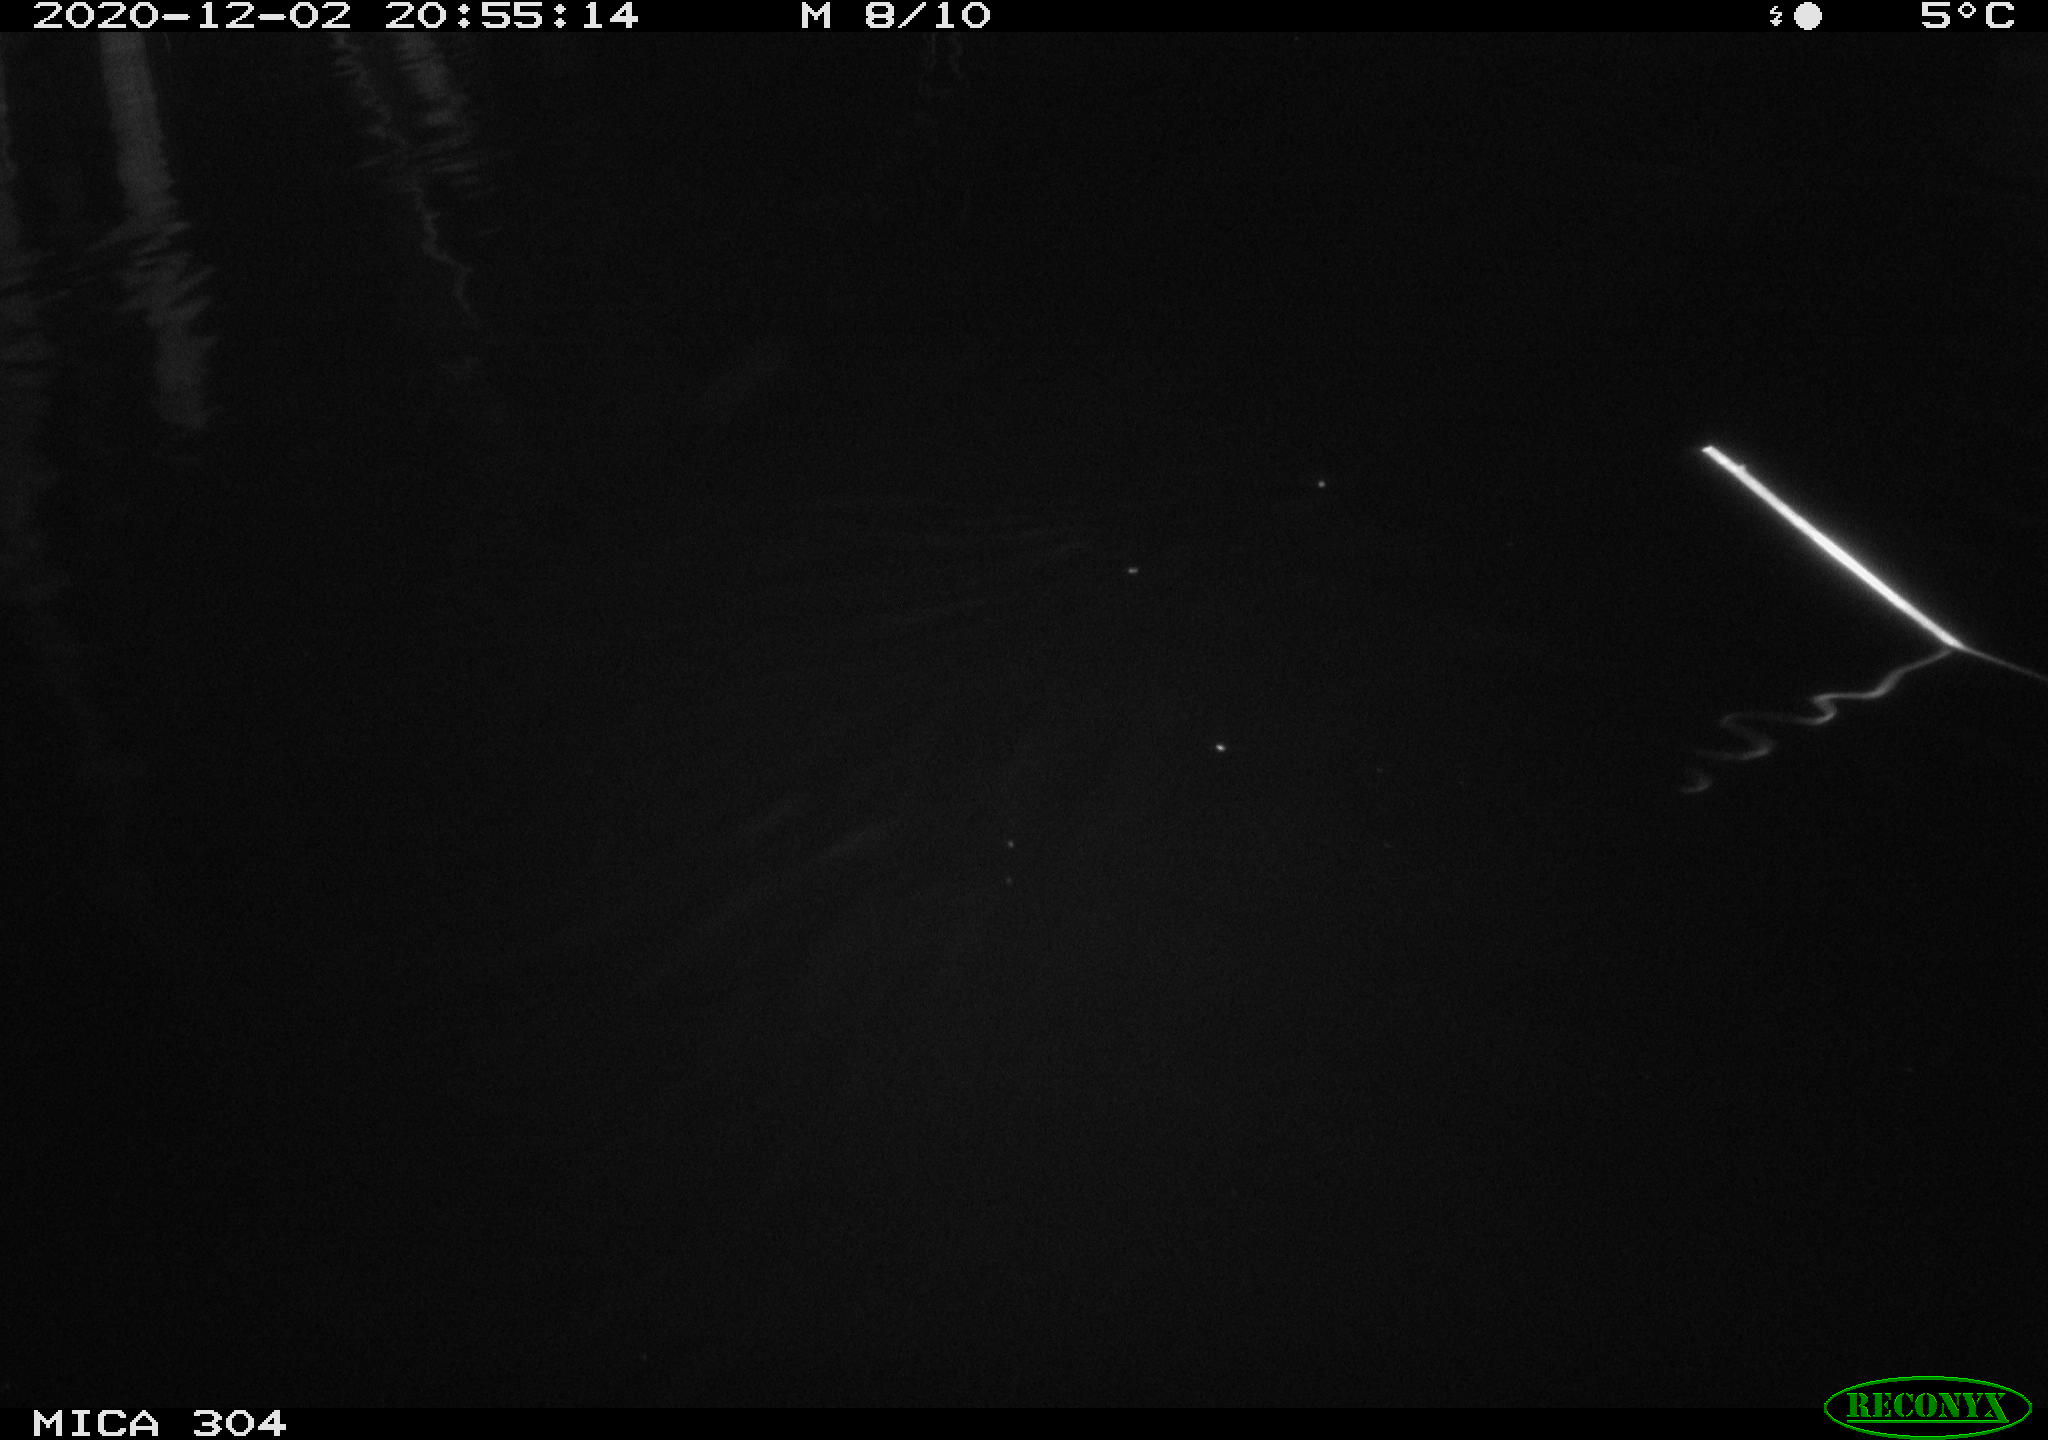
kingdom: Animalia
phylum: Chordata
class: Mammalia
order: Rodentia
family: Muridae
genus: Rattus
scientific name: Rattus norvegicus
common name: Brown rat
